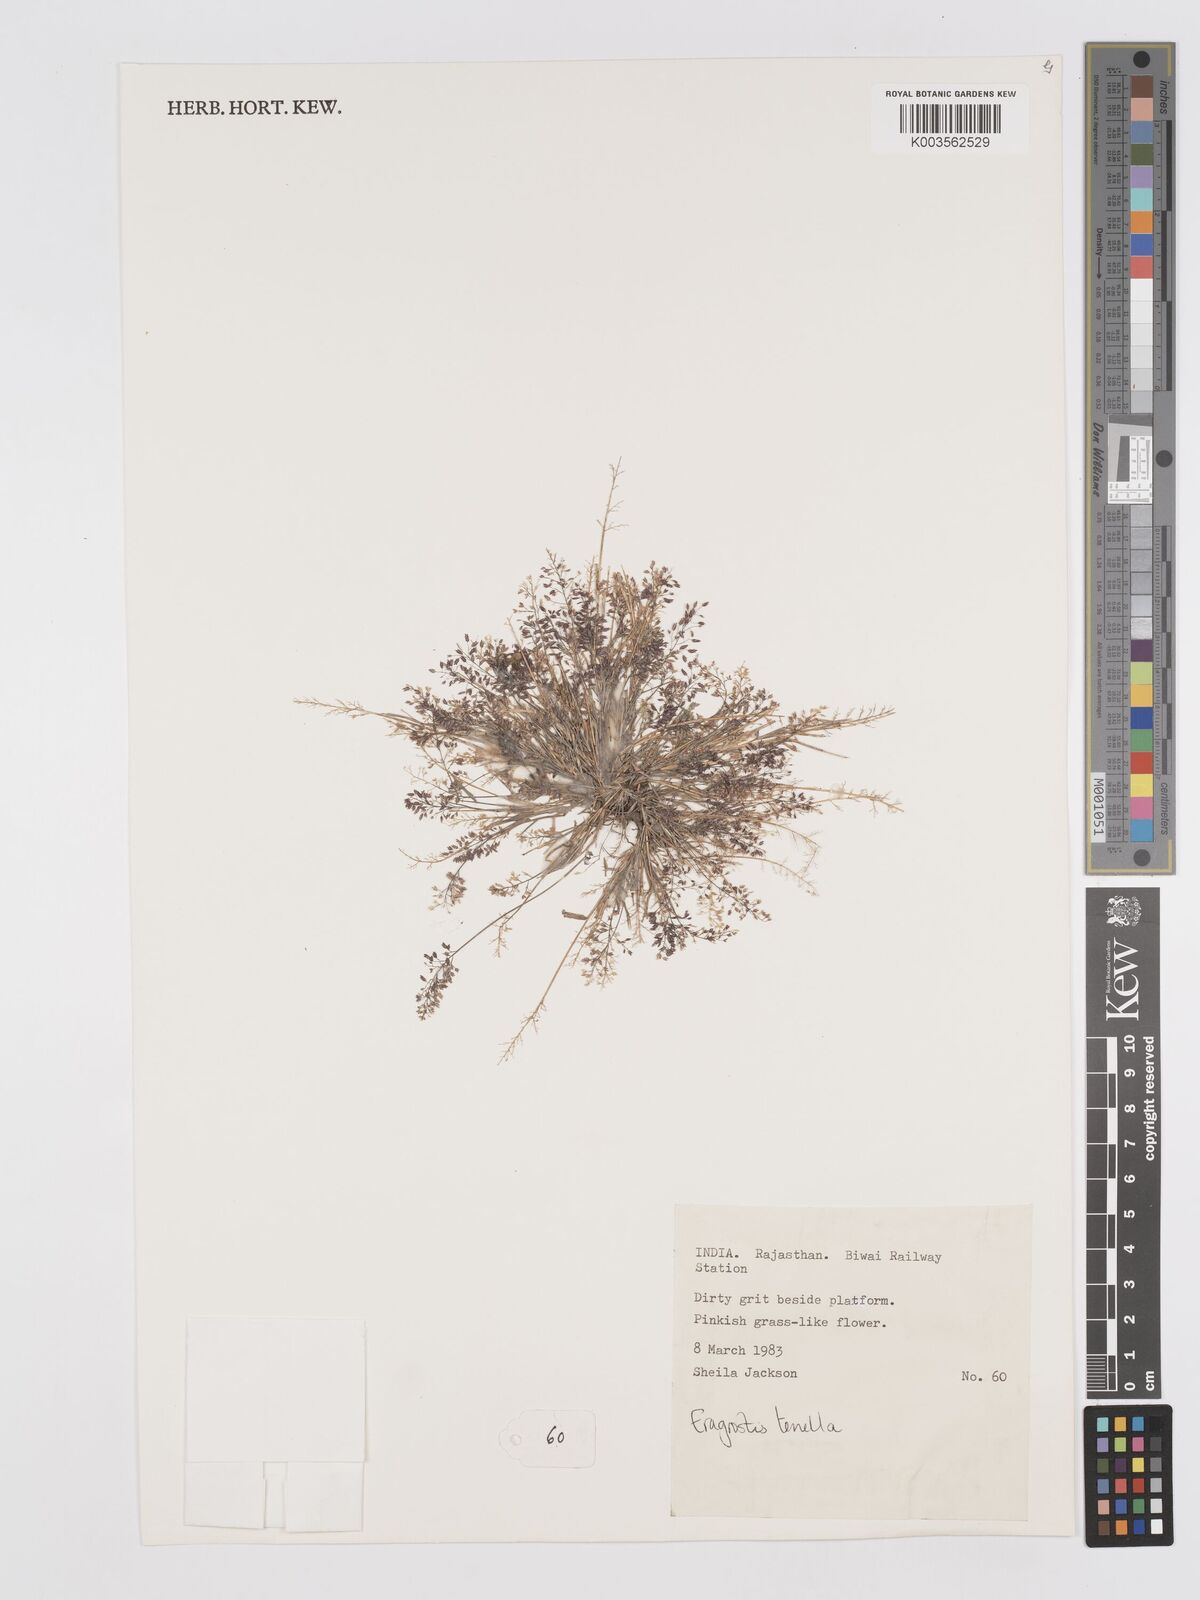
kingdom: Plantae
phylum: Tracheophyta
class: Liliopsida
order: Poales
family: Poaceae
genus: Eragrostis
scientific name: Eragrostis tenella
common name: Japanese lovegrass
